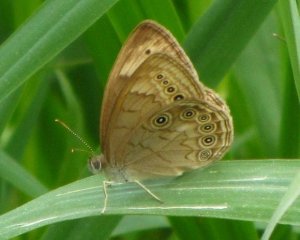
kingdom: Animalia
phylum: Arthropoda
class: Insecta
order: Lepidoptera
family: Nymphalidae
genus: Lethe
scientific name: Lethe eurydice
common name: Eyed Brown
